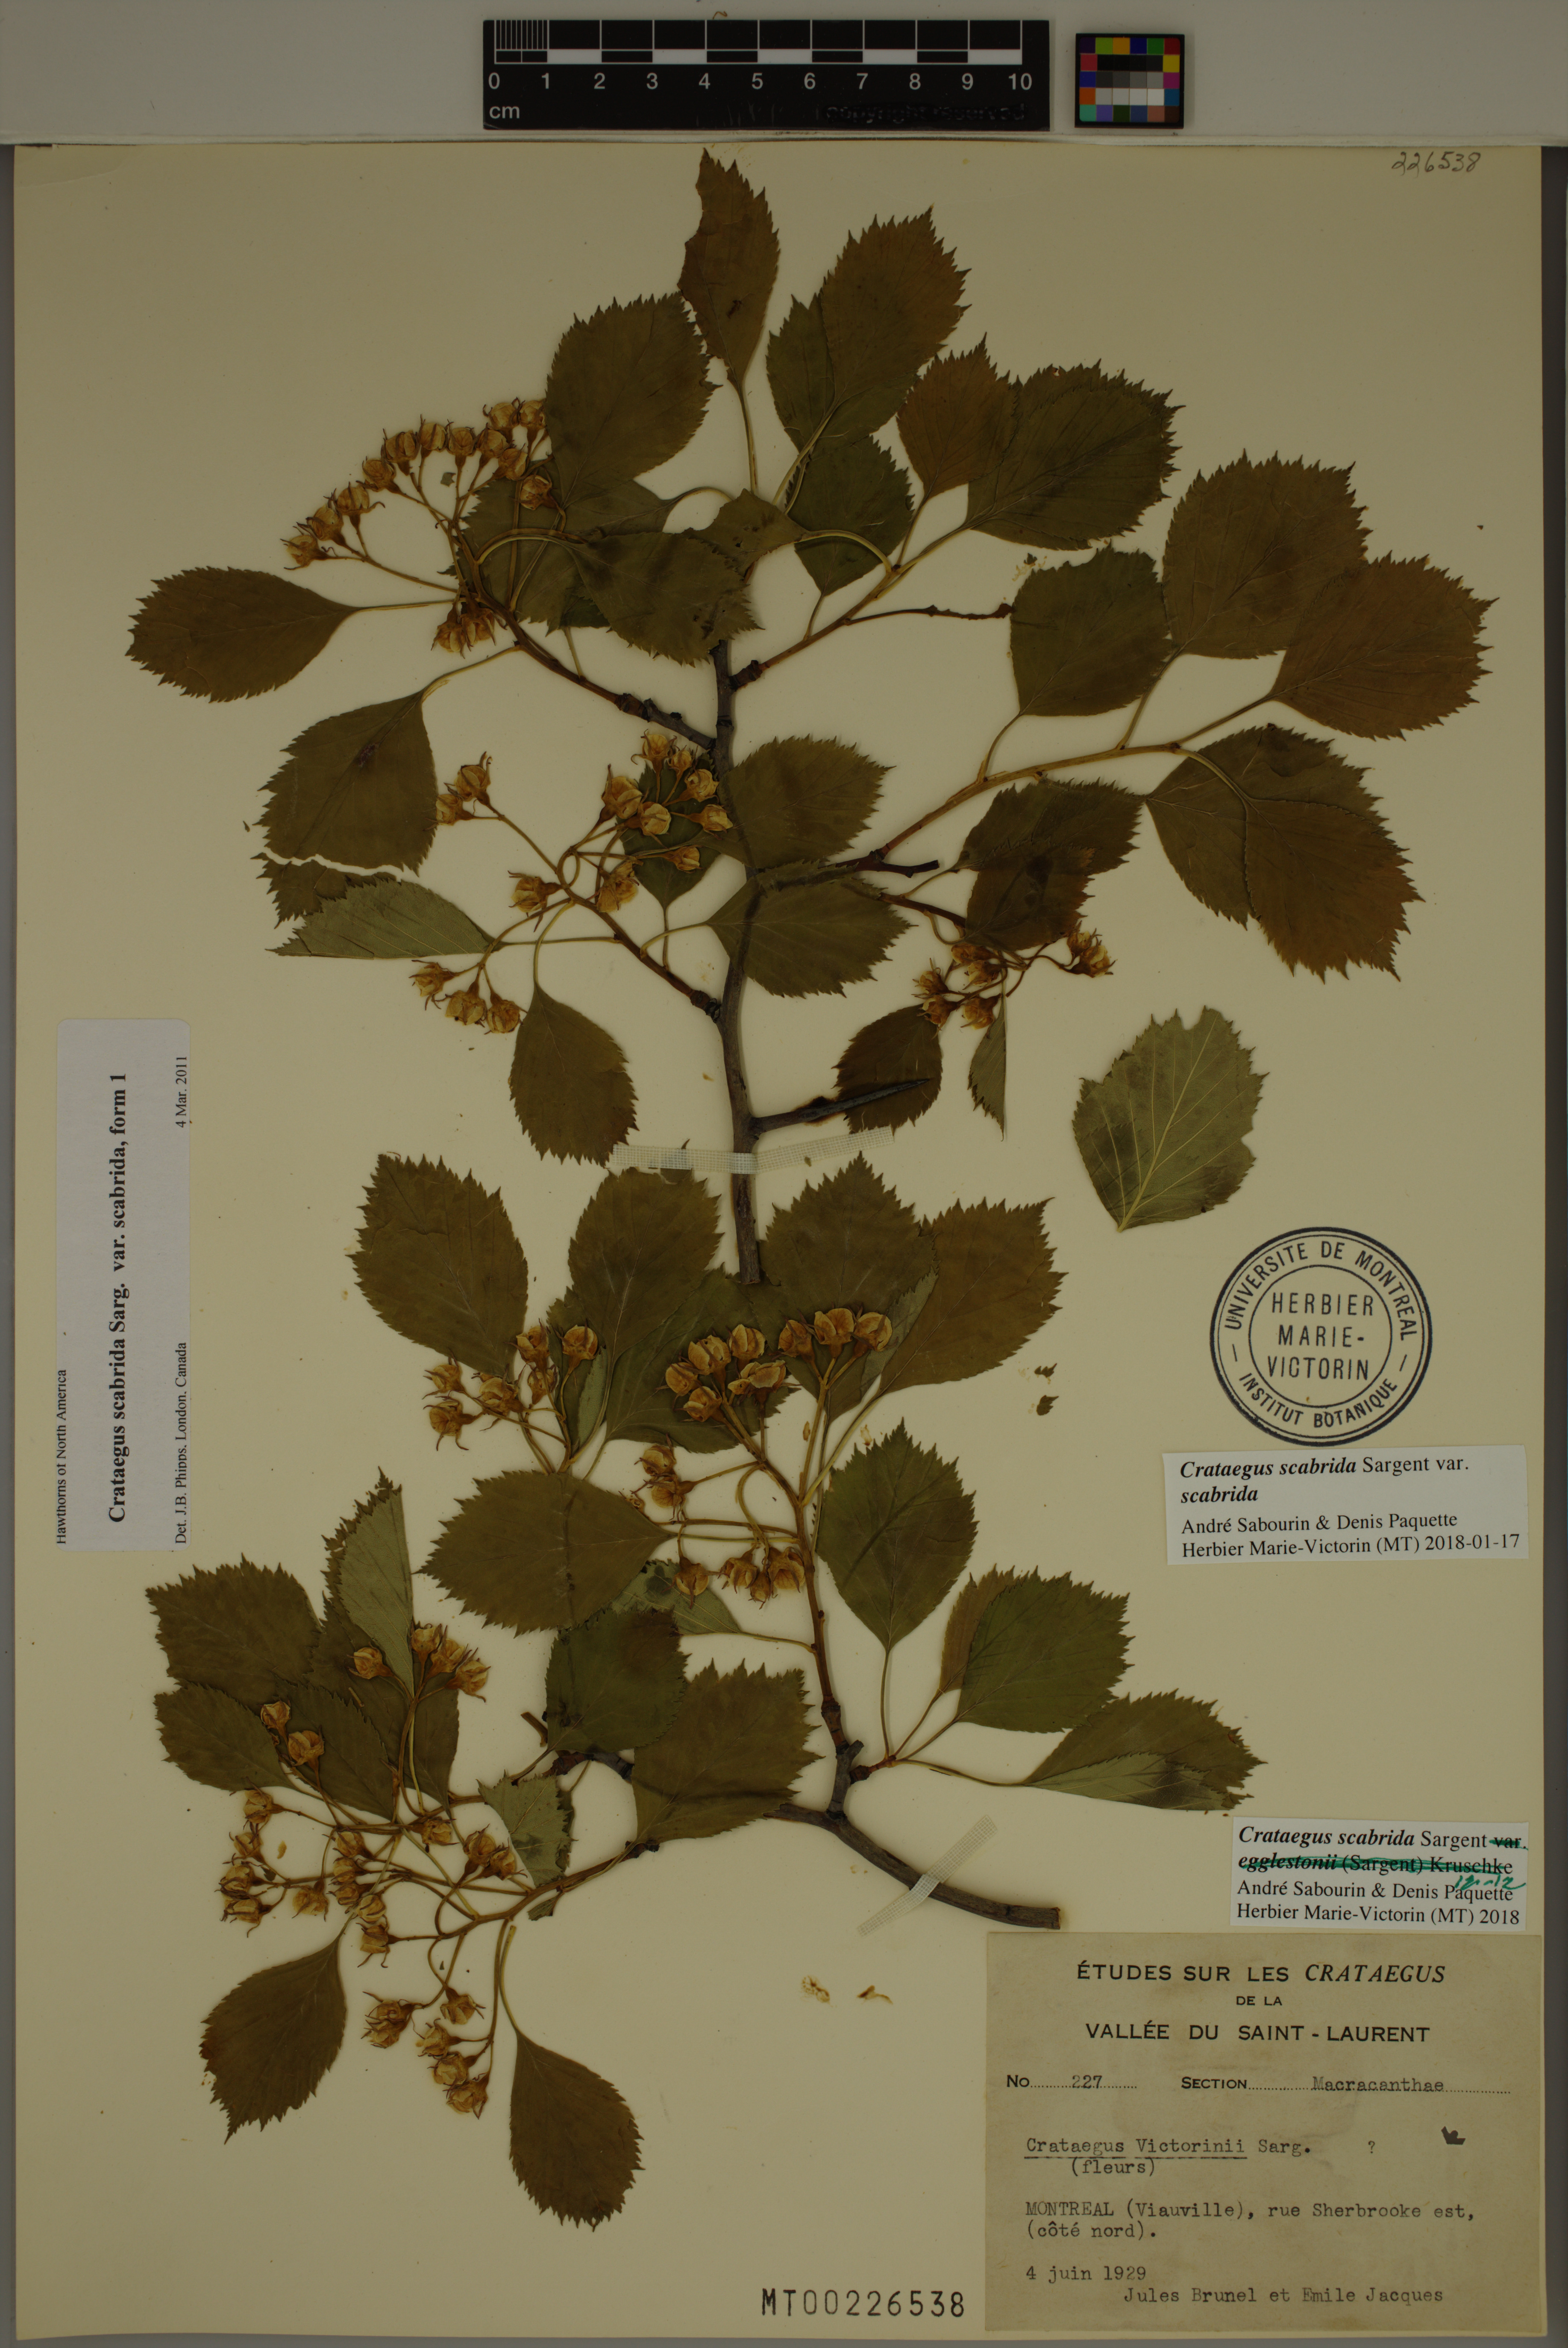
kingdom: Plantae
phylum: Tracheophyta
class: Magnoliopsida
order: Rosales
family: Rosaceae
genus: Crataegus
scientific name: Crataegus scabrida
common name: Rough hawthorn
